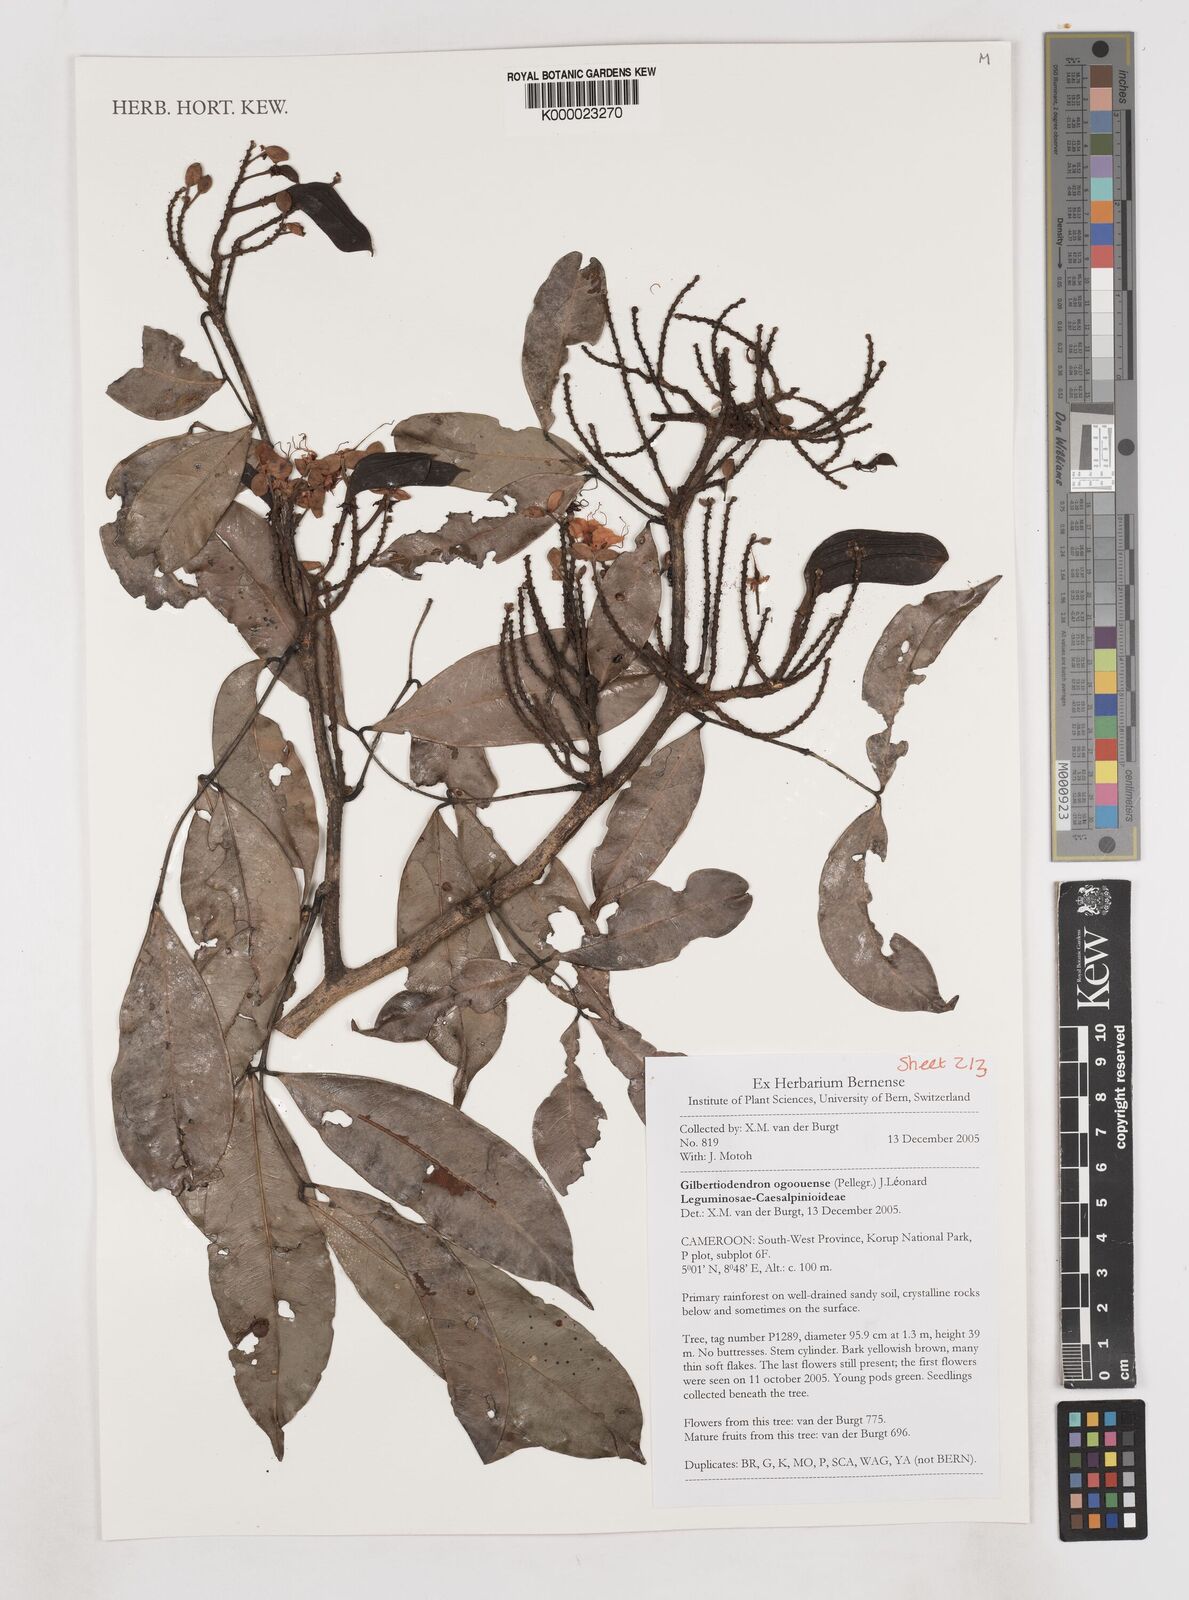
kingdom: Plantae
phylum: Tracheophyta
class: Magnoliopsida
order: Fabales
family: Fabaceae
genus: Gilbertiodendron
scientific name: Gilbertiodendron
